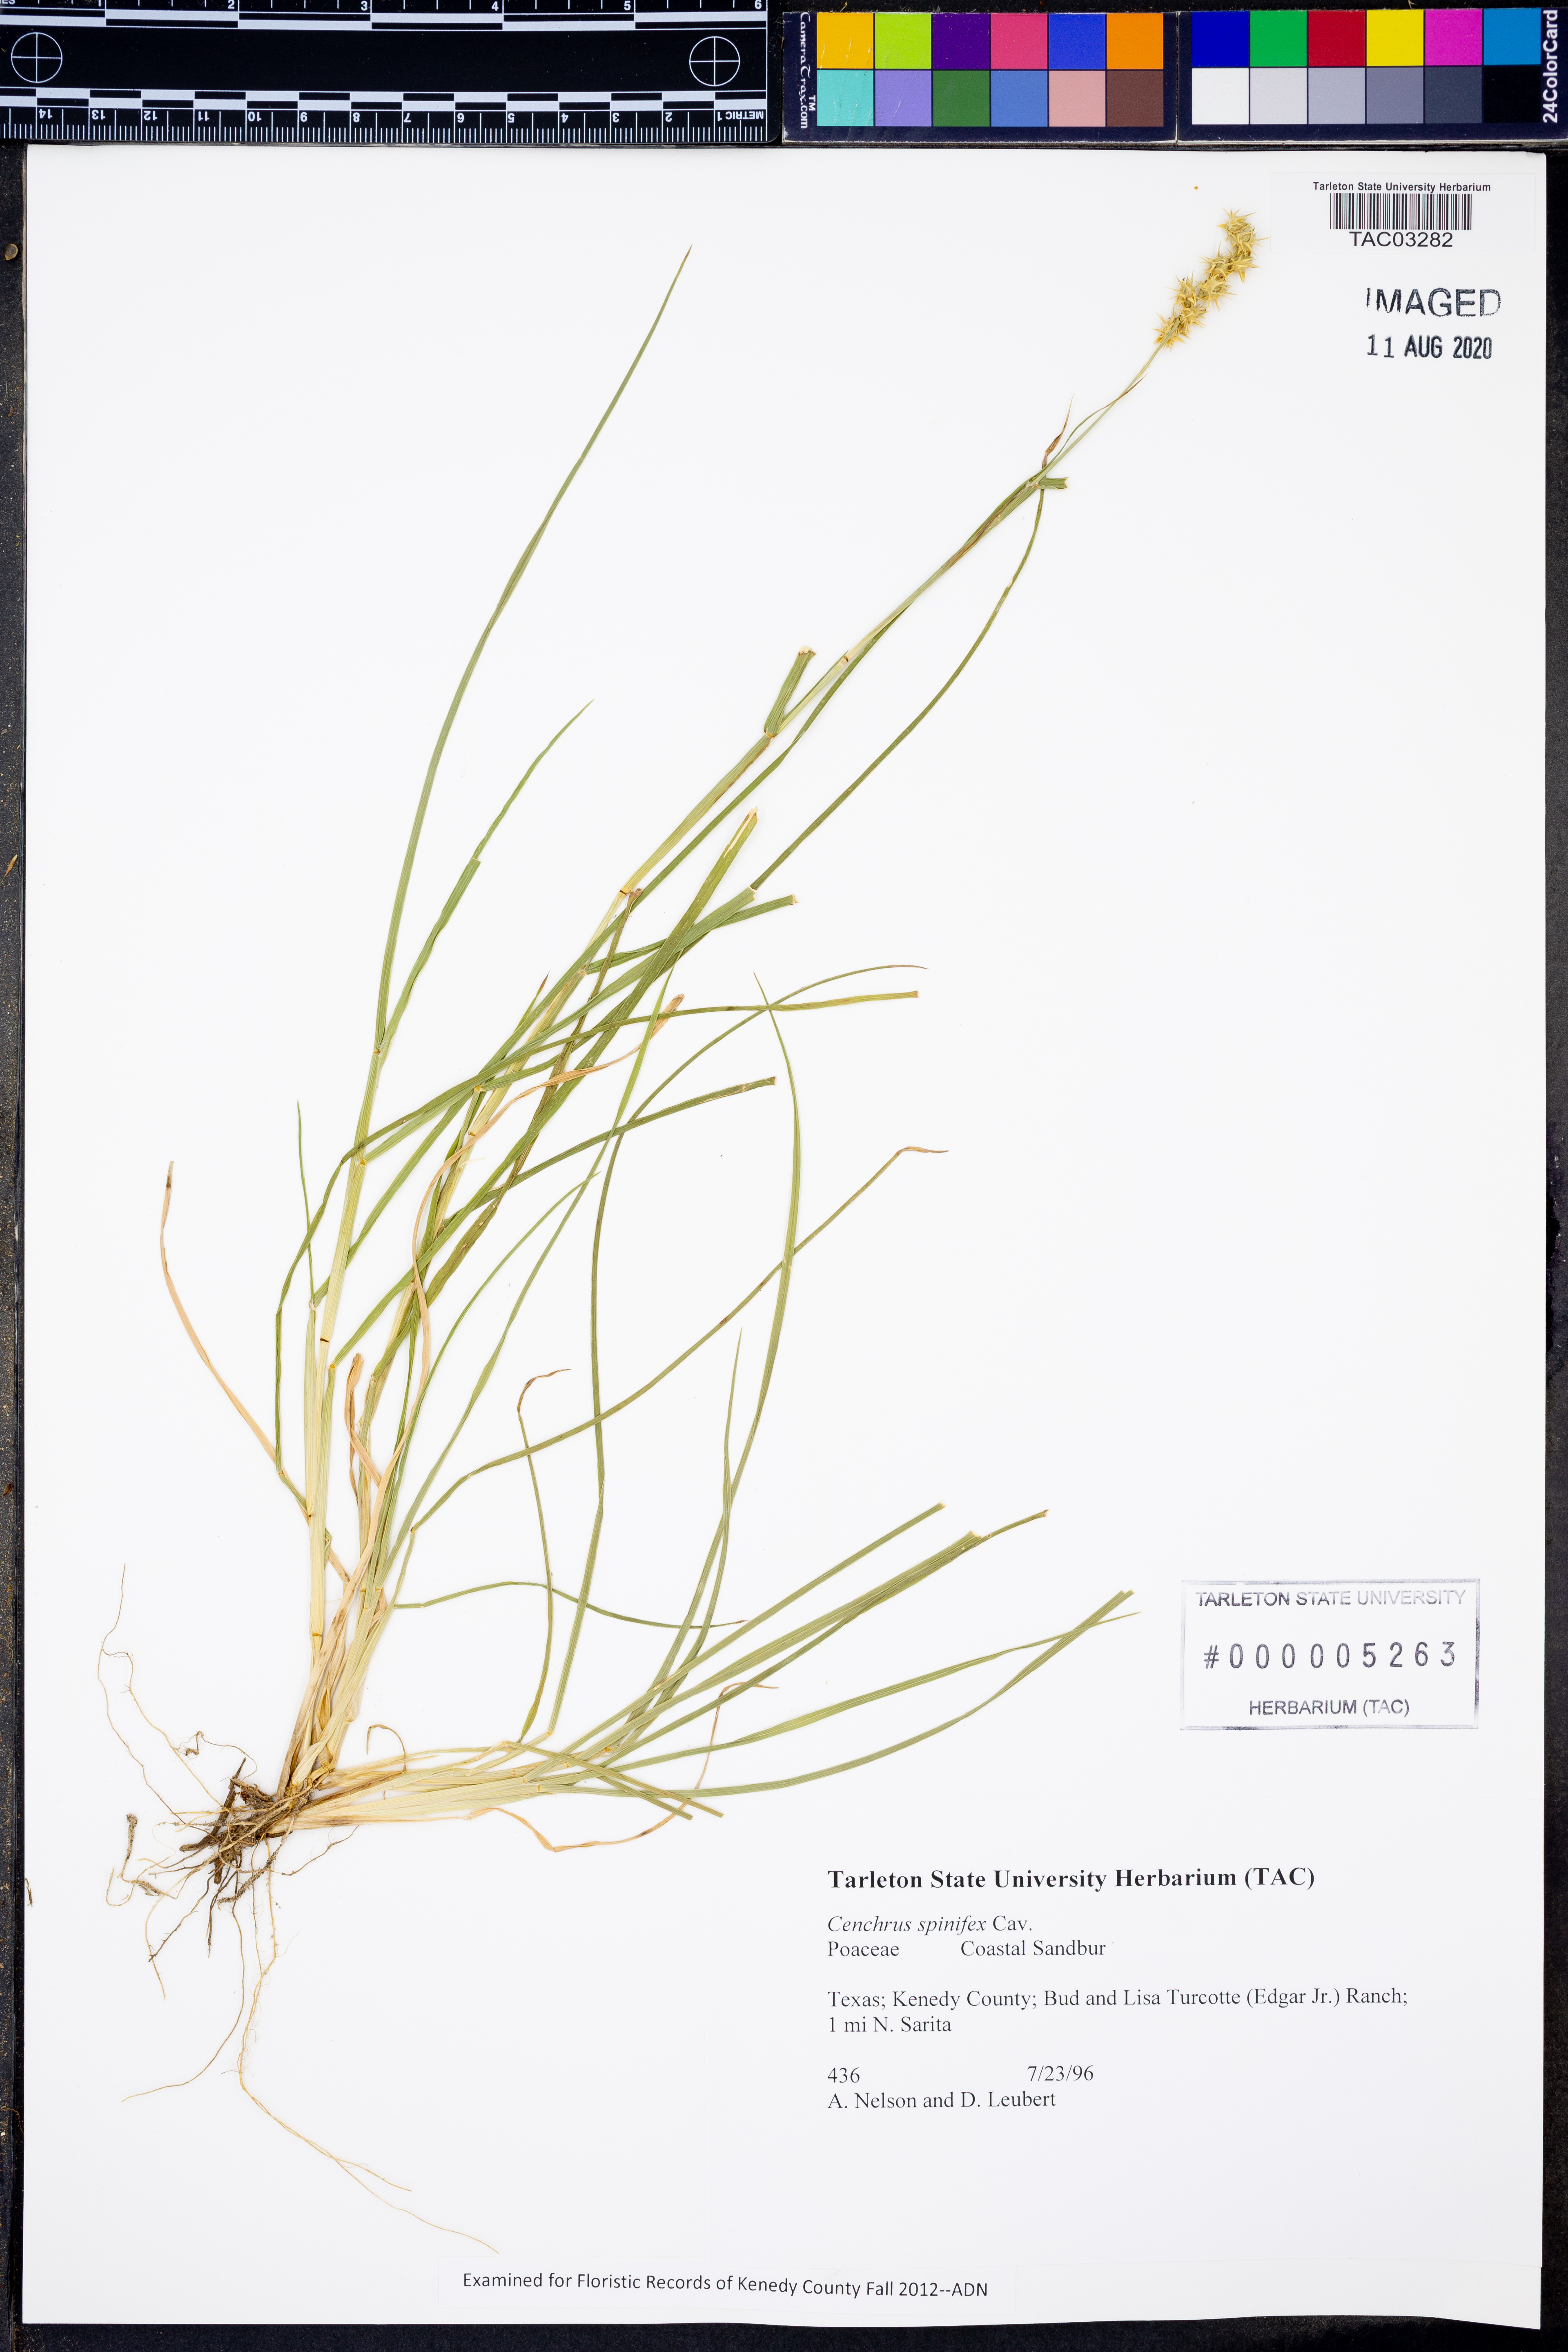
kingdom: Plantae
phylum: Tracheophyta
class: Liliopsida
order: Poales
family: Poaceae
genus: Cenchrus
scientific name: Cenchrus spinifex
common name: Coast sandbur
